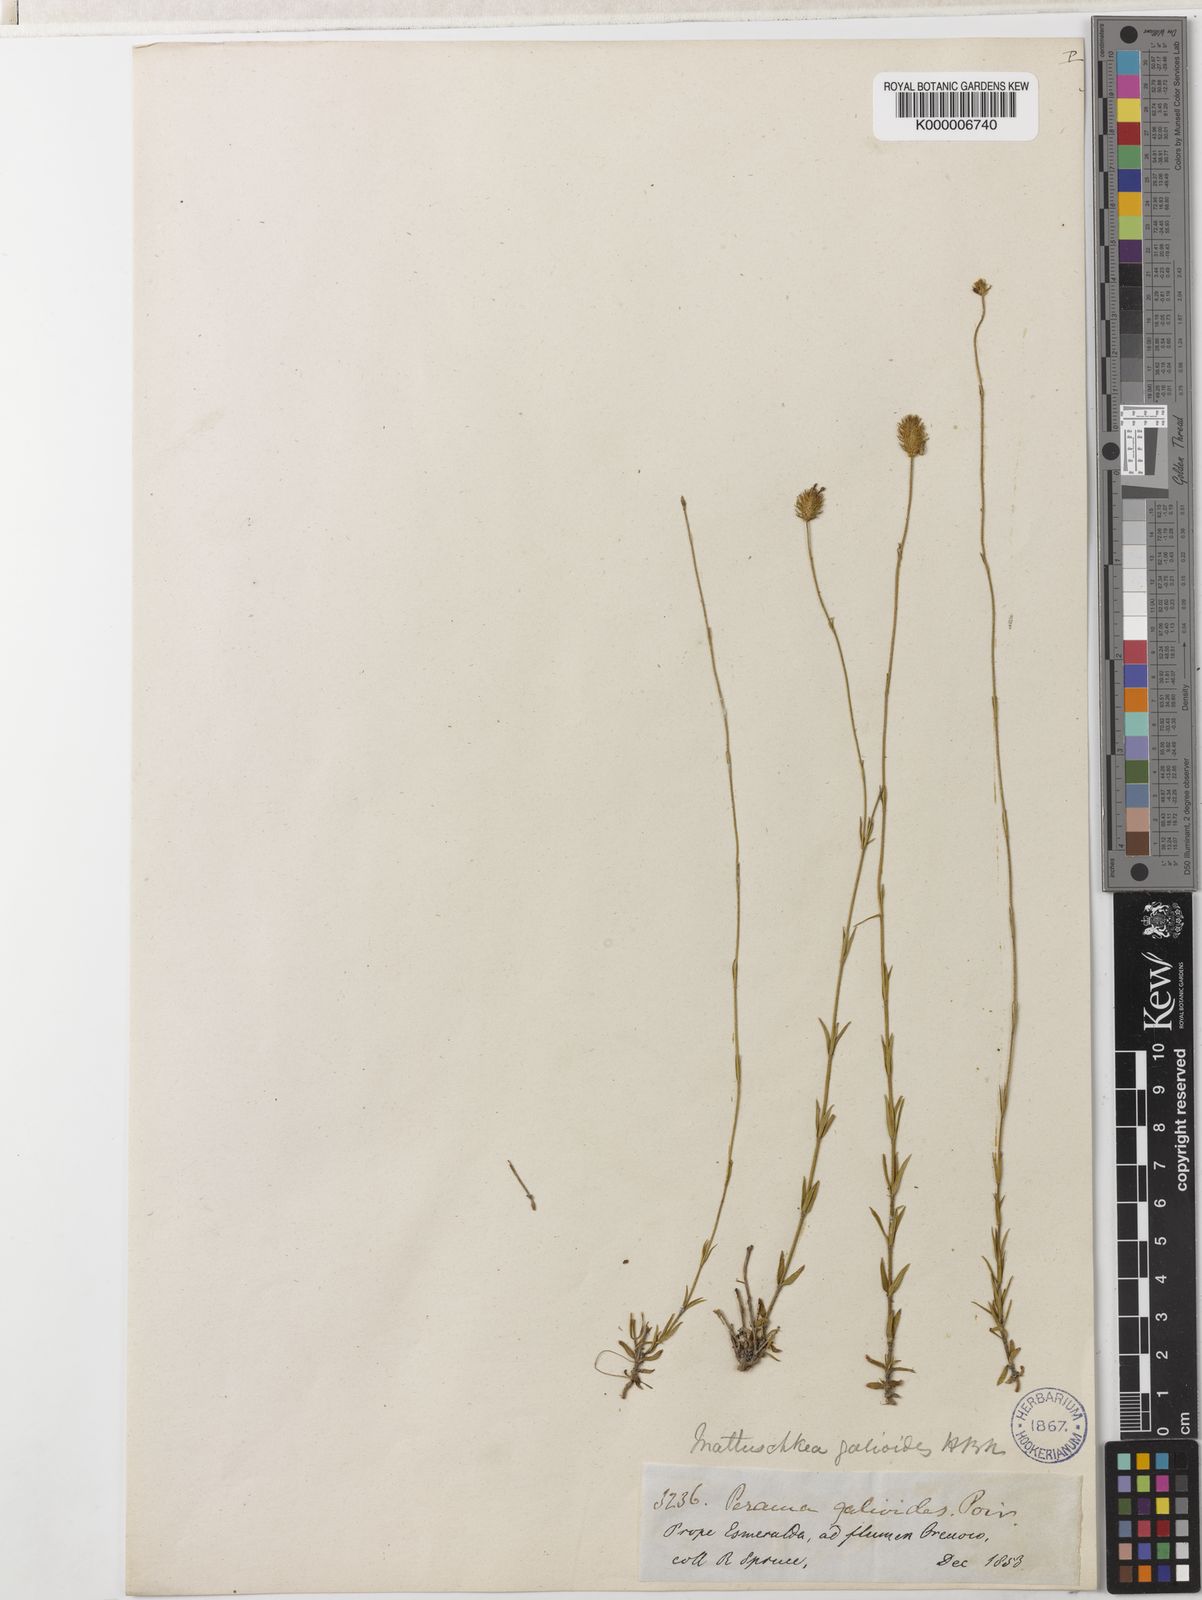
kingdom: Plantae
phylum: Tracheophyta
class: Magnoliopsida
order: Gentianales
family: Rubiaceae
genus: Perama
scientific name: Perama
